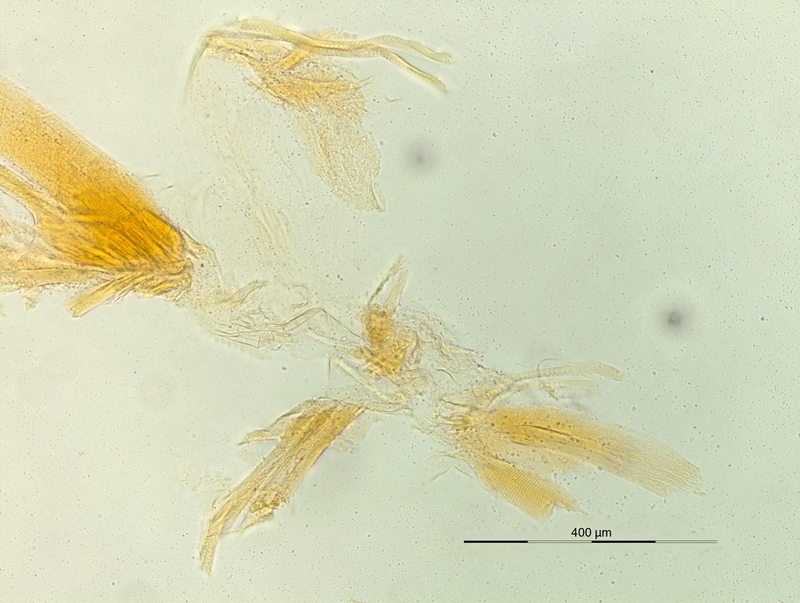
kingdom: Animalia
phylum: Arthropoda
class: Diplopoda
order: Chordeumatida
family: Craspedosomatidae
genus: Dactylophorosoma
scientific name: Dactylophorosoma nivisatelles
